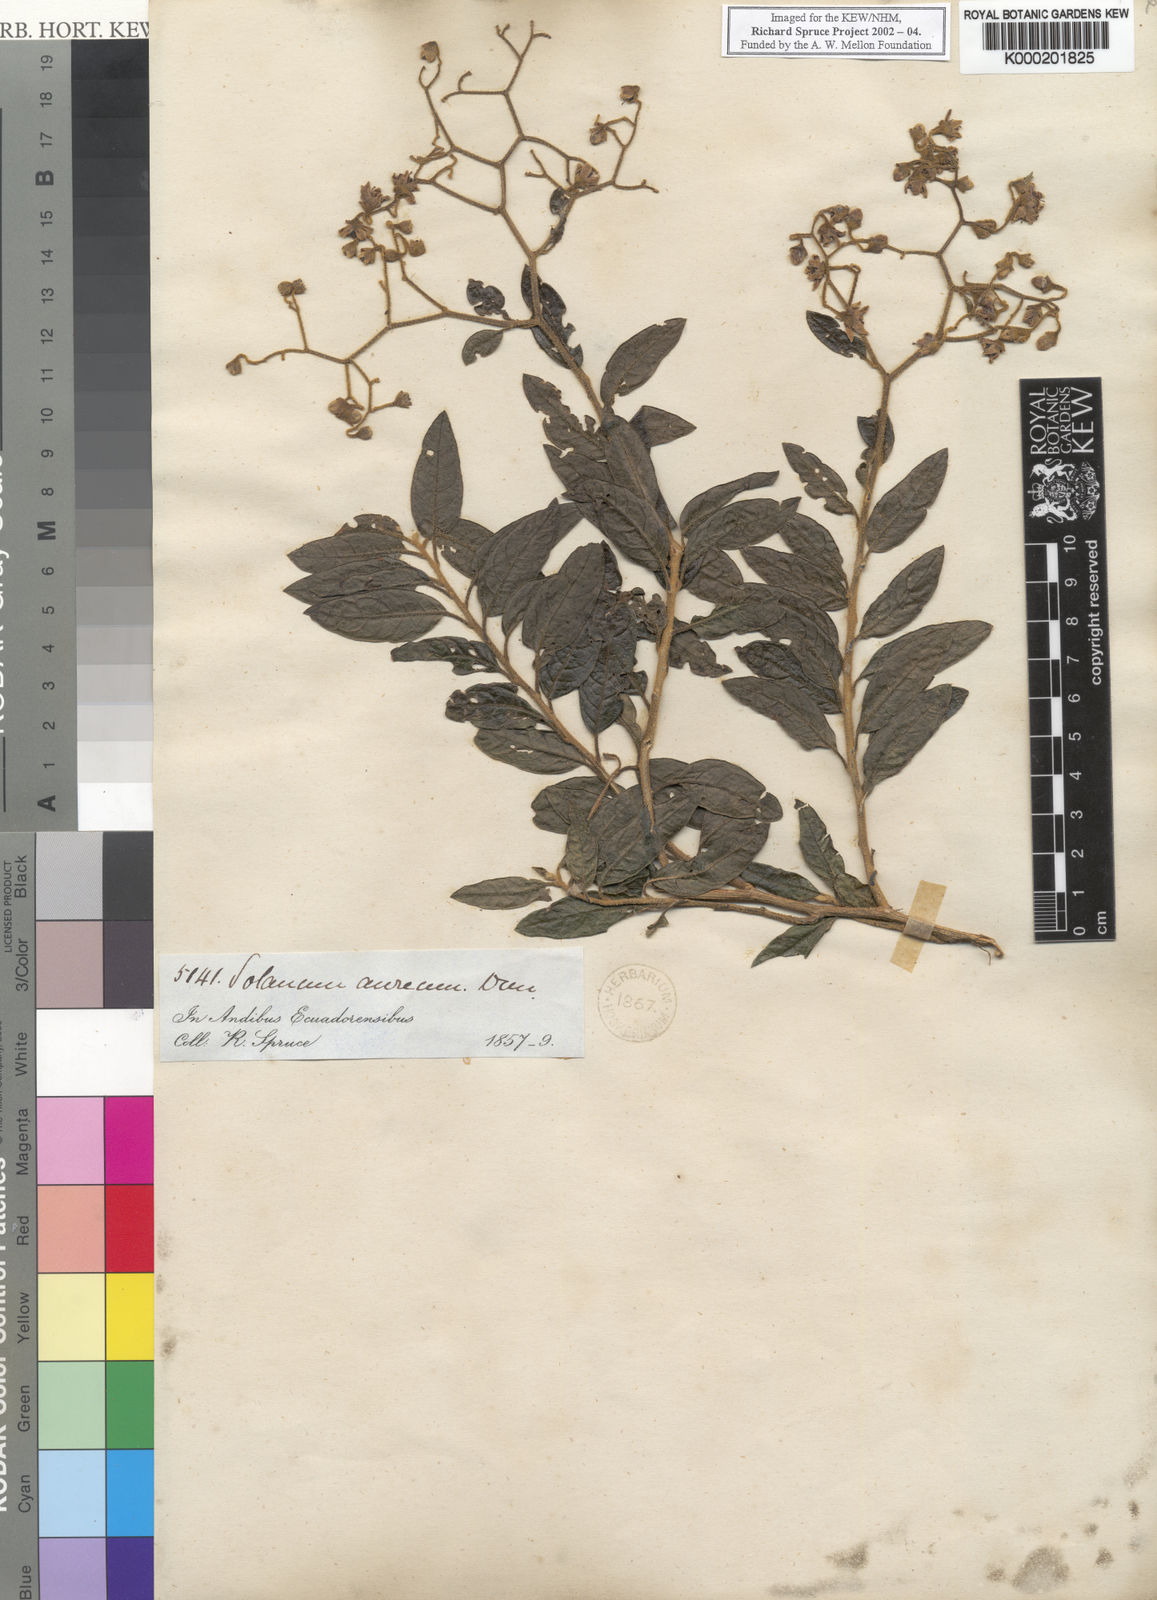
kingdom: Plantae
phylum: Tracheophyta
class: Magnoliopsida
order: Solanales
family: Solanaceae
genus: Solanum
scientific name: Solanum aureum
